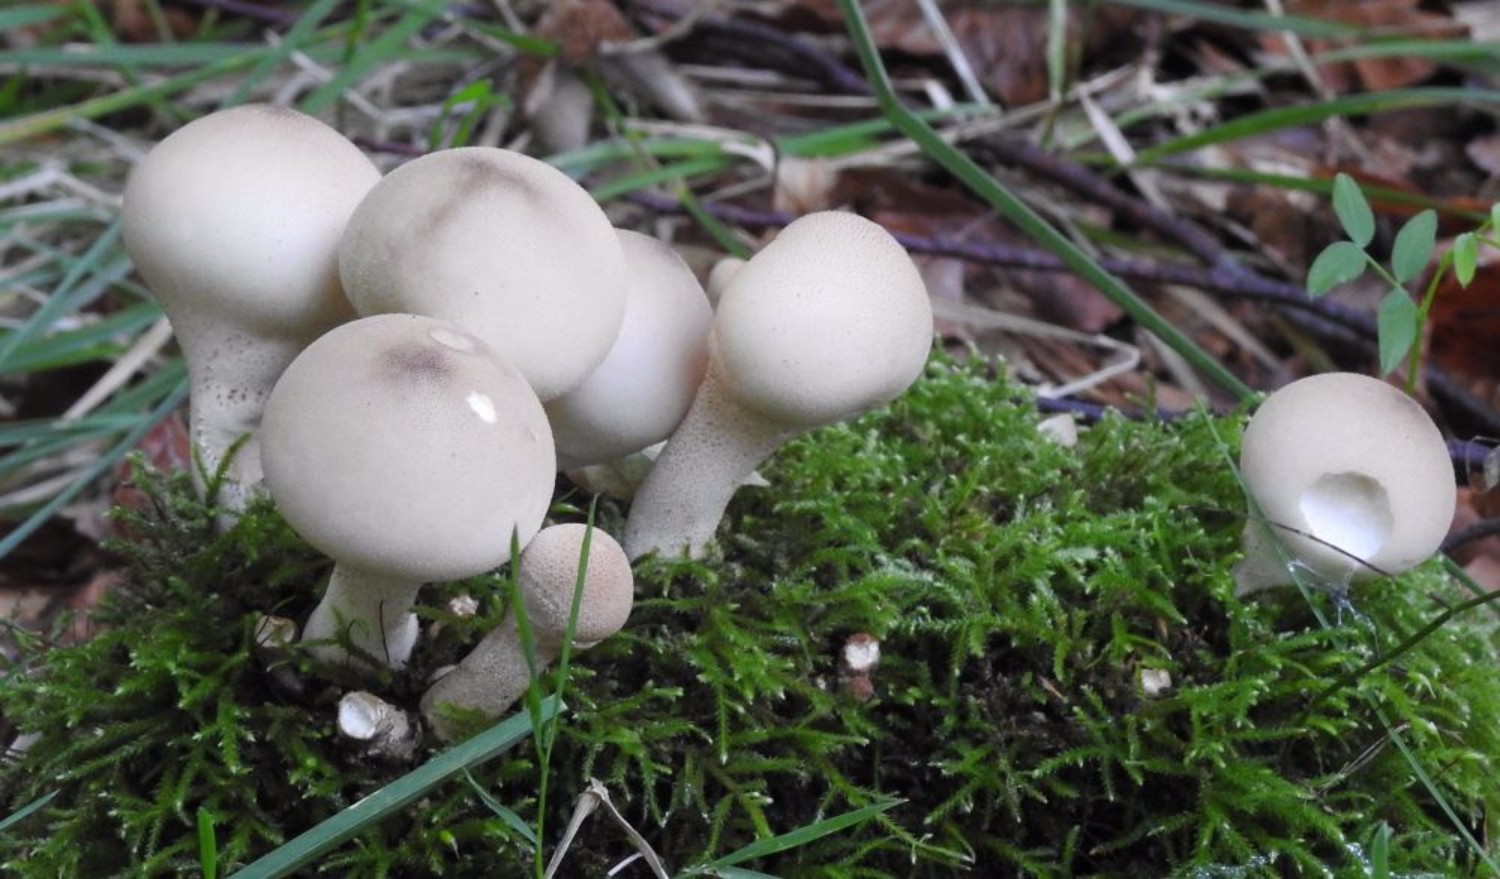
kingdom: Fungi
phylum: Basidiomycota
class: Agaricomycetes
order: Agaricales
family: Lycoperdaceae
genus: Apioperdon
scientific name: Apioperdon pyriforme
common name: pære-støvbold
